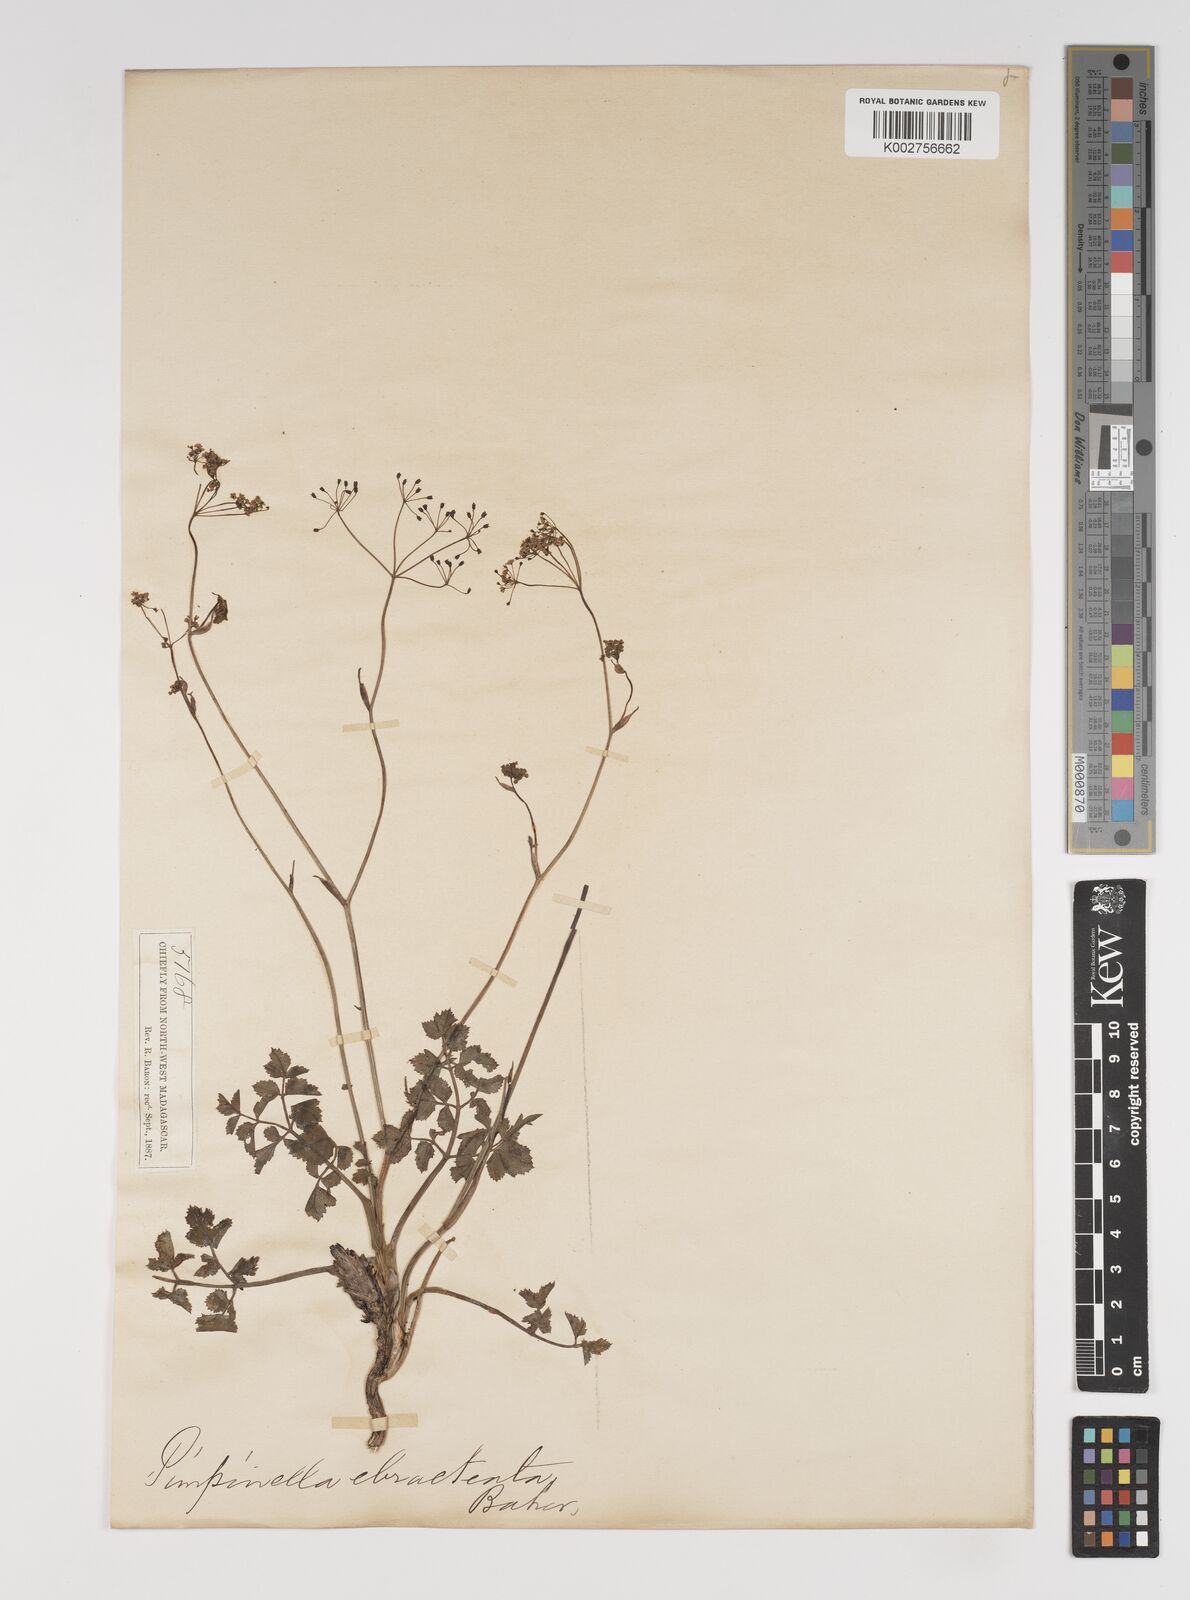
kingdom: Plantae
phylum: Tracheophyta
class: Magnoliopsida
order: Apiales
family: Apiaceae
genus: Pimpinella
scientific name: Pimpinella
